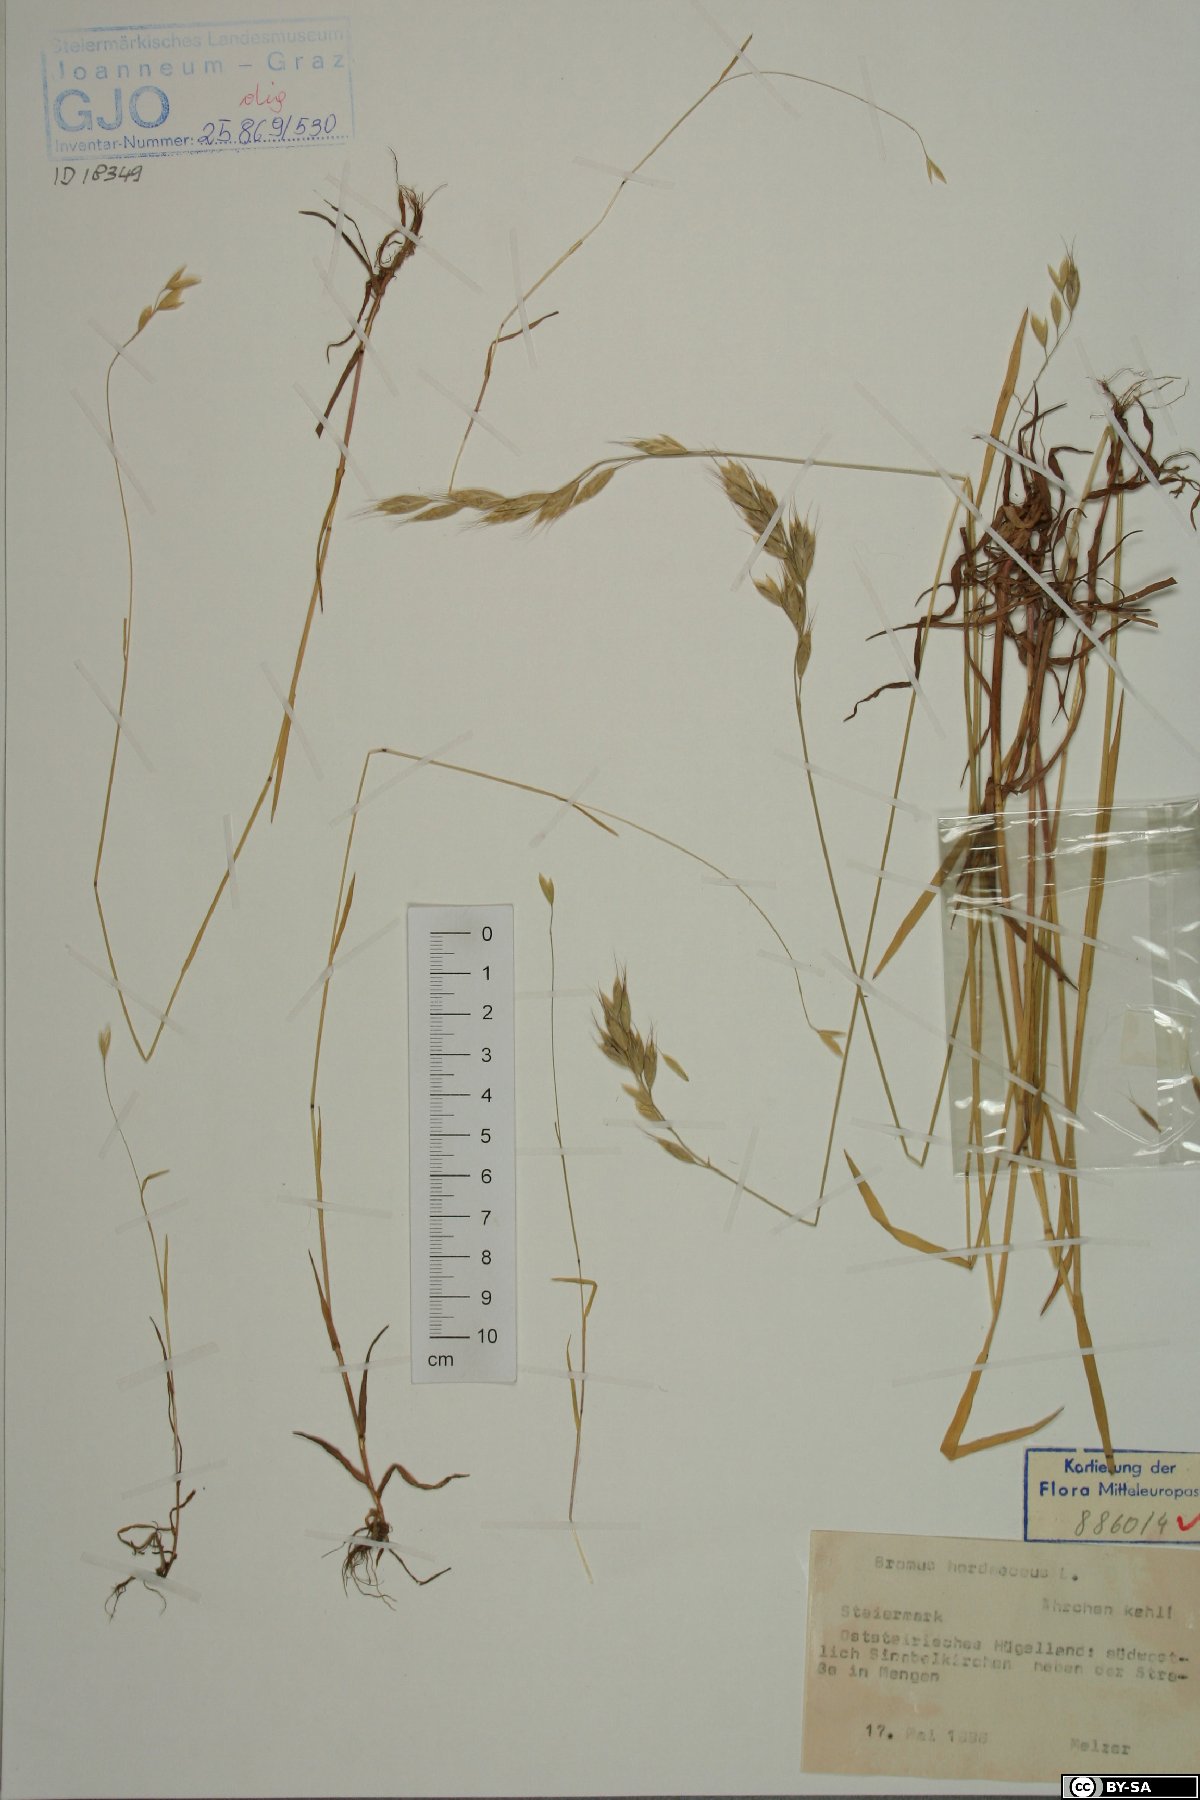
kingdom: Plantae
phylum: Tracheophyta
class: Liliopsida
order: Poales
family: Poaceae
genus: Bromus
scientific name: Bromus hordeaceus
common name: Soft brome
